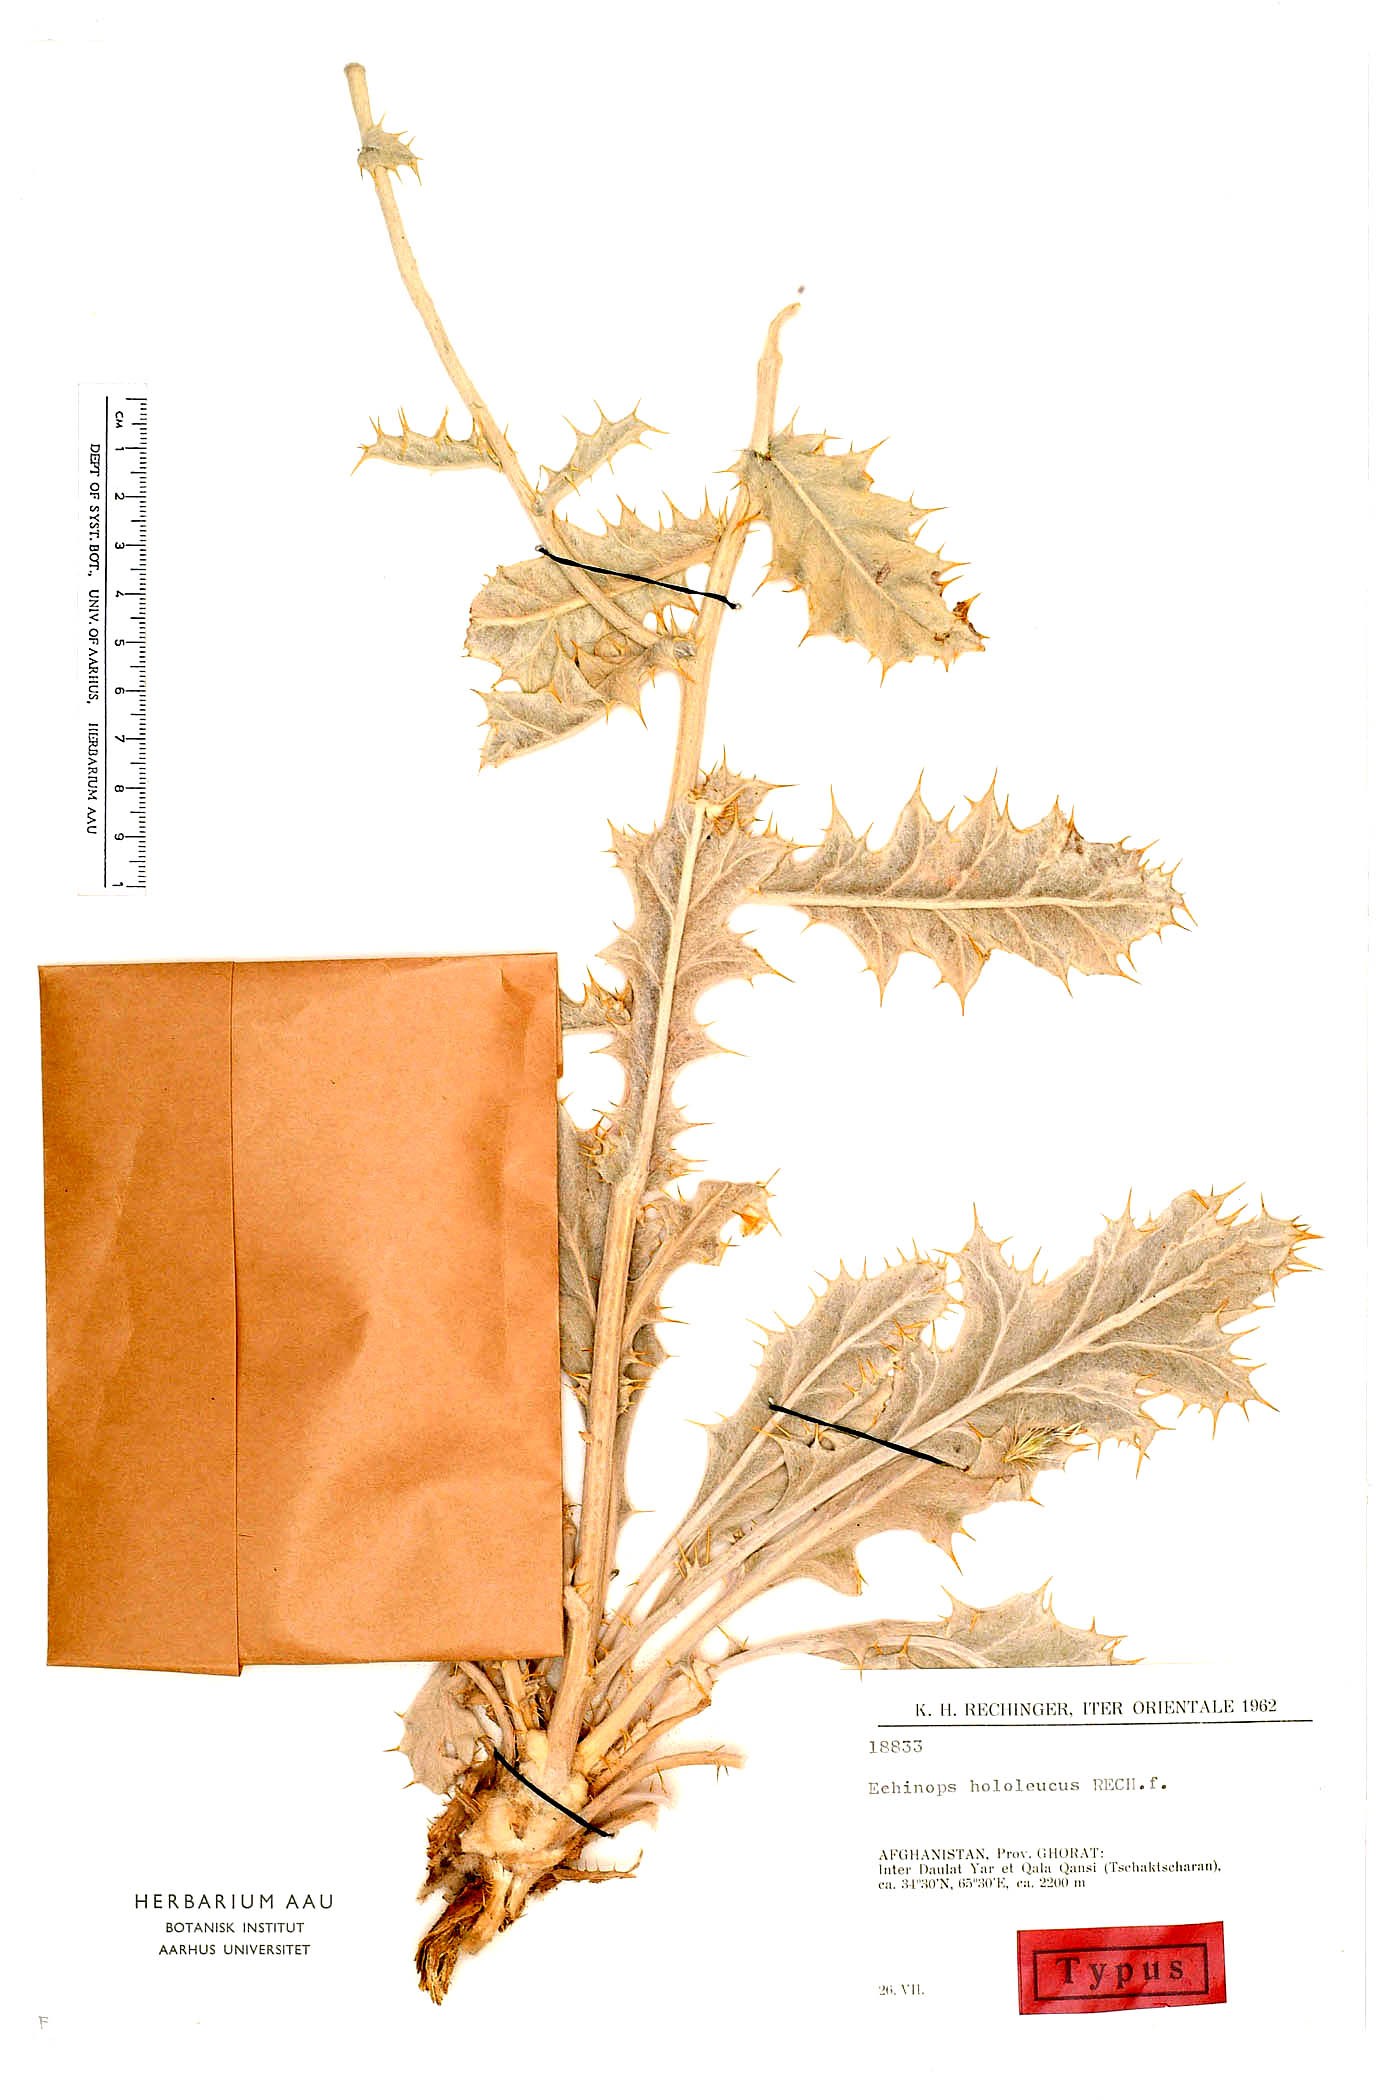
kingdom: Plantae
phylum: Tracheophyta
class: Magnoliopsida
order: Asterales
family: Asteraceae
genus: Echinops
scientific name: Echinops hololeucus
